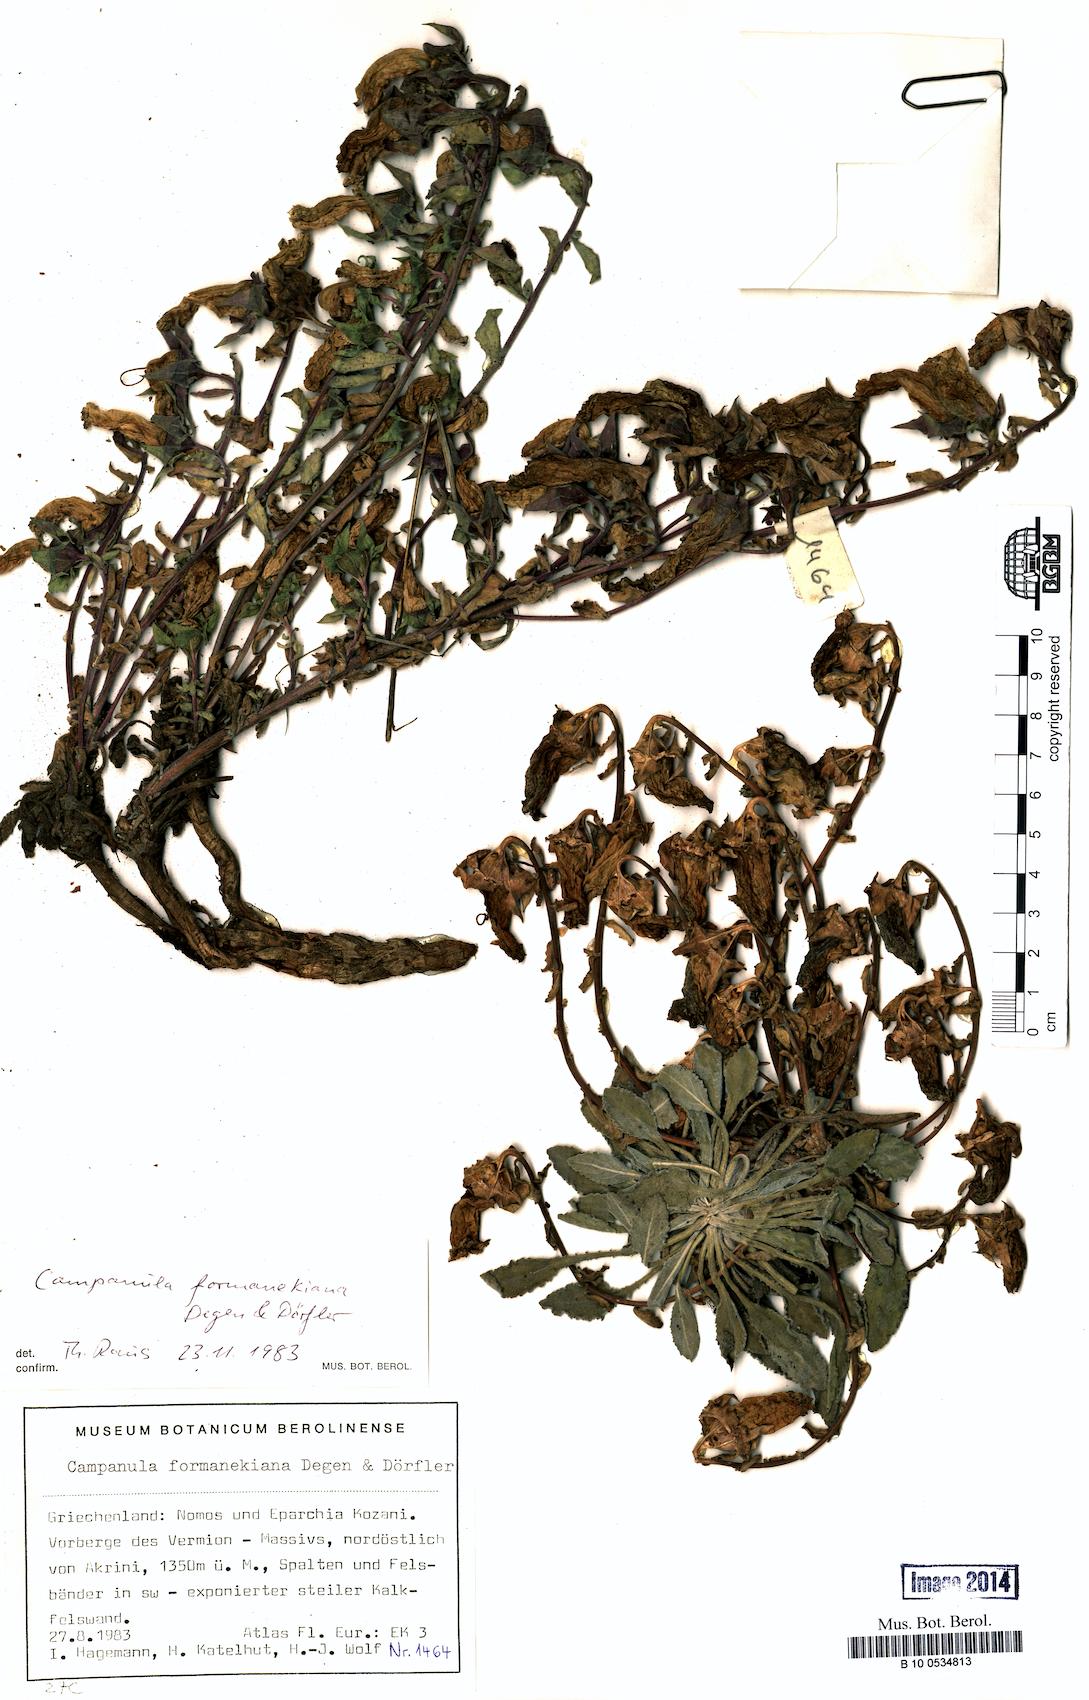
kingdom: Plantae
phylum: Tracheophyta
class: Magnoliopsida
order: Asterales
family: Campanulaceae
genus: Campanula
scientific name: Campanula formanekiana
